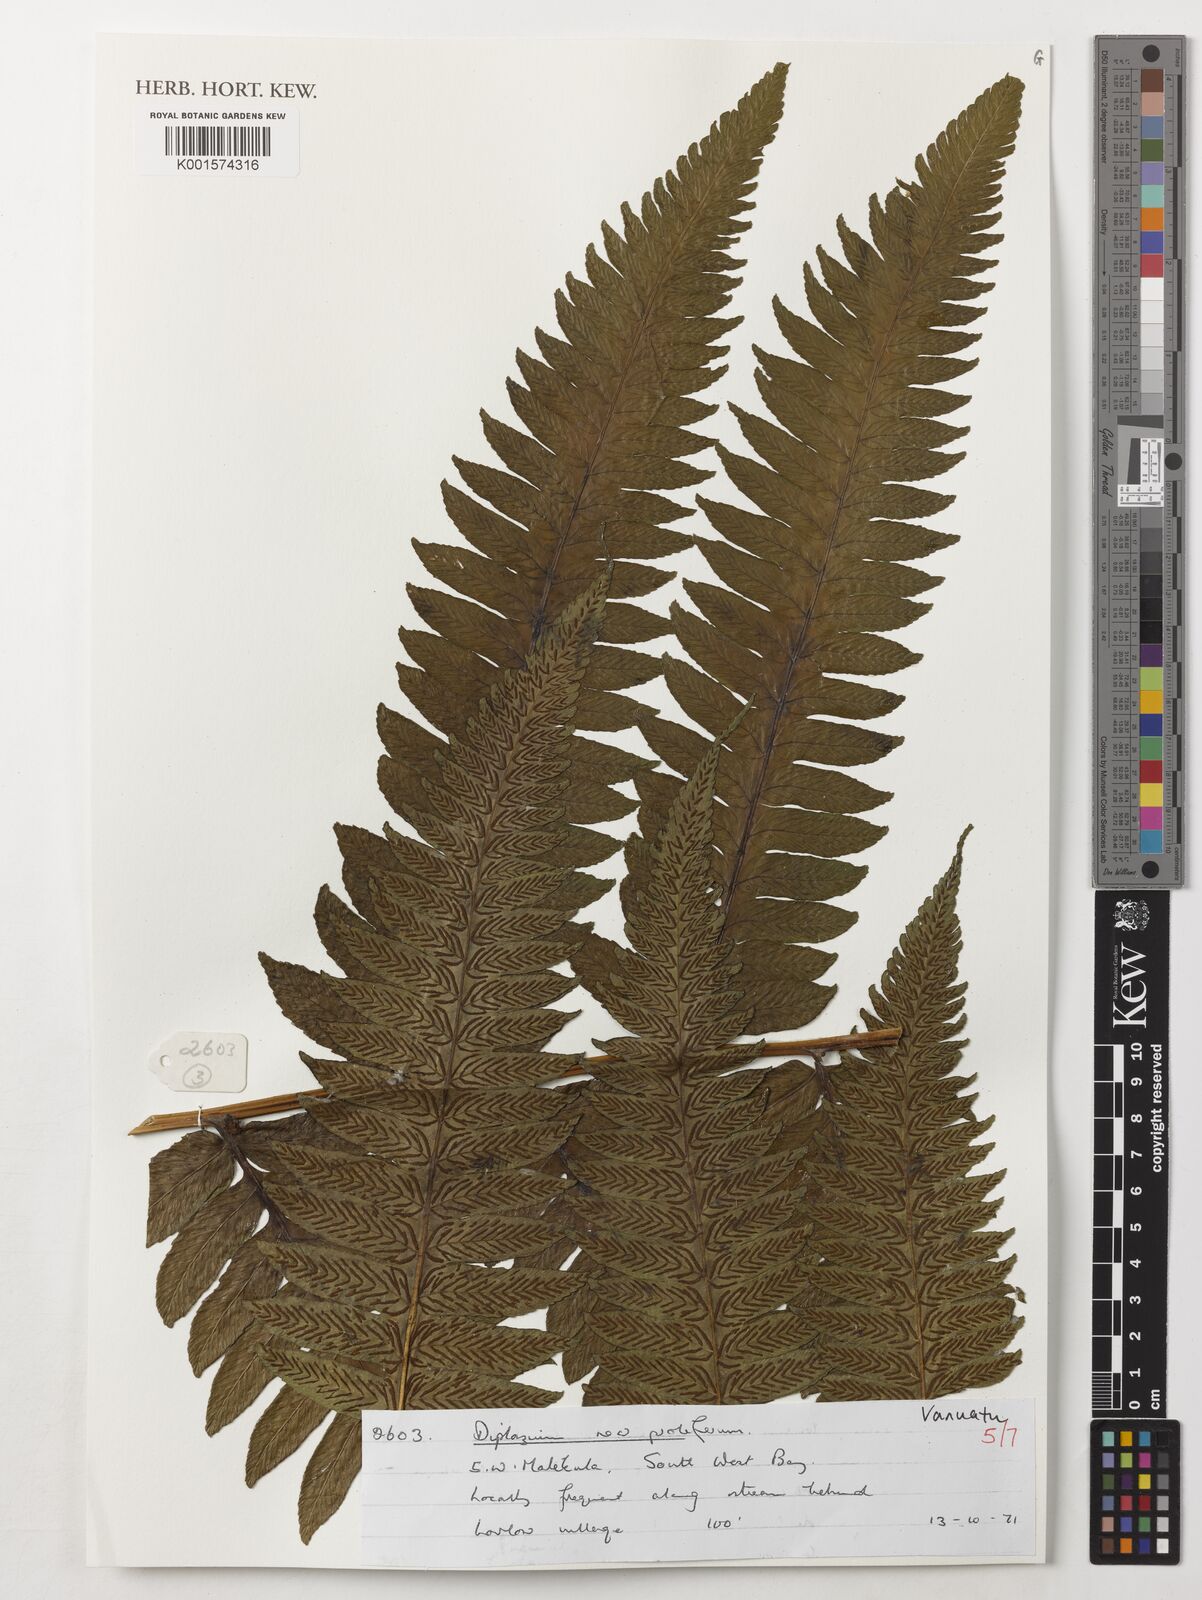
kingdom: Plantae
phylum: Tracheophyta
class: Polypodiopsida
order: Polypodiales
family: Athyriaceae
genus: Diplazium
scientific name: Diplazium proliferum
